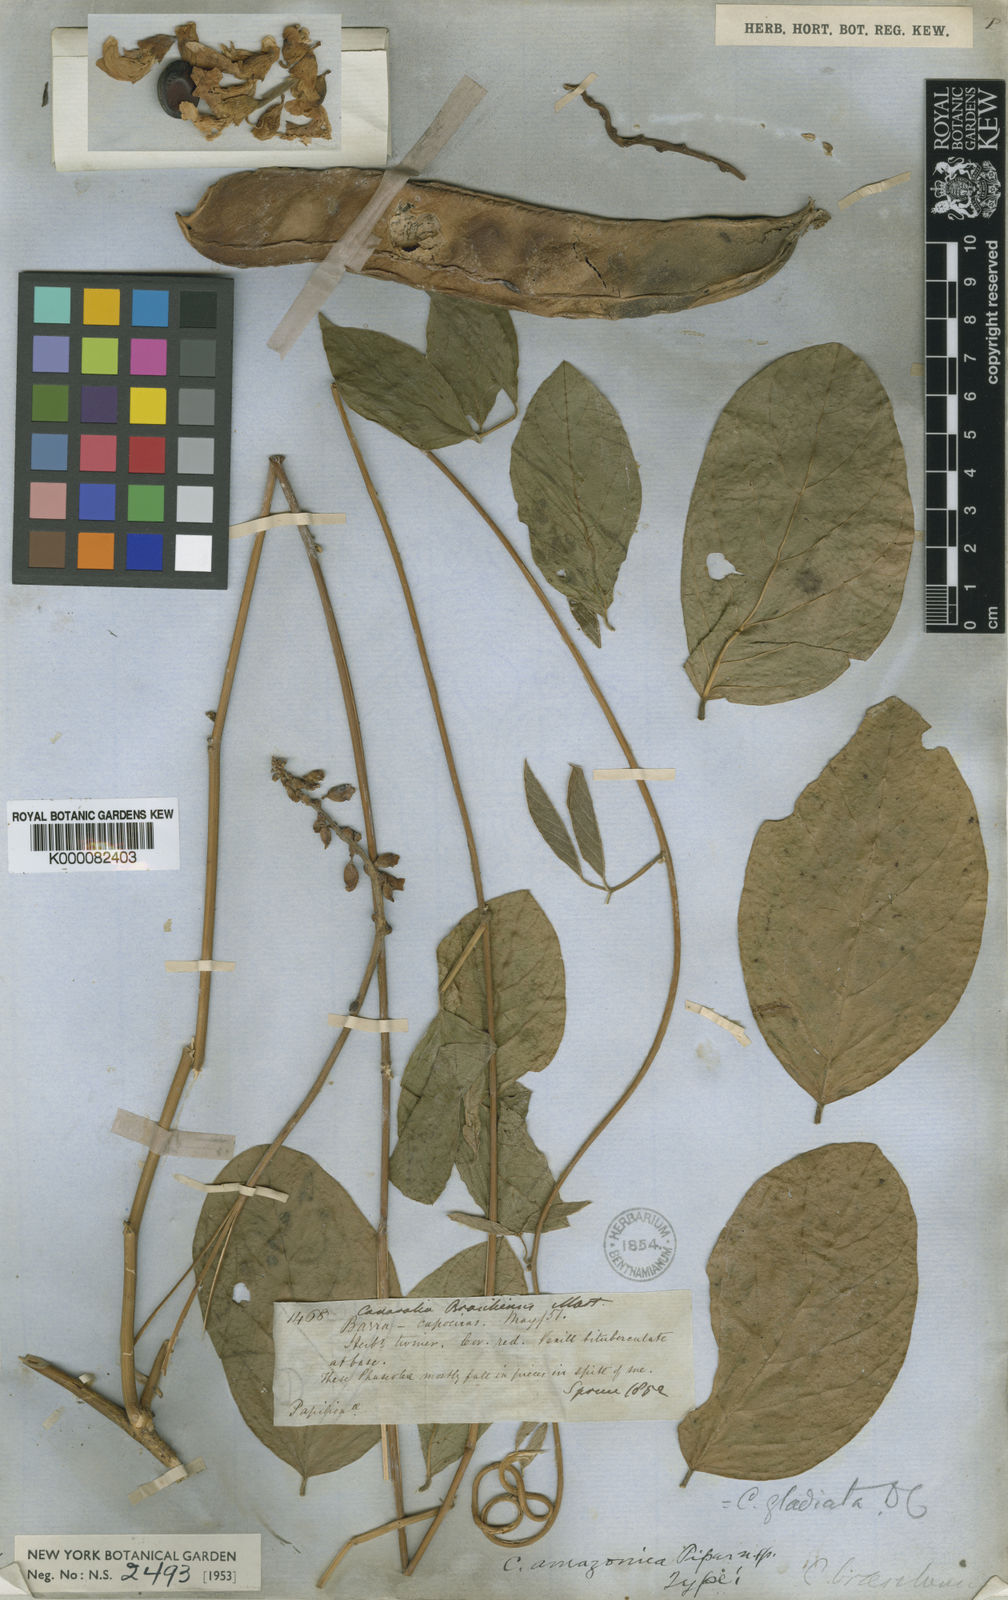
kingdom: Plantae
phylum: Tracheophyta
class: Magnoliopsida
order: Fabales
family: Fabaceae
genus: Canavalia
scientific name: Canavalia
